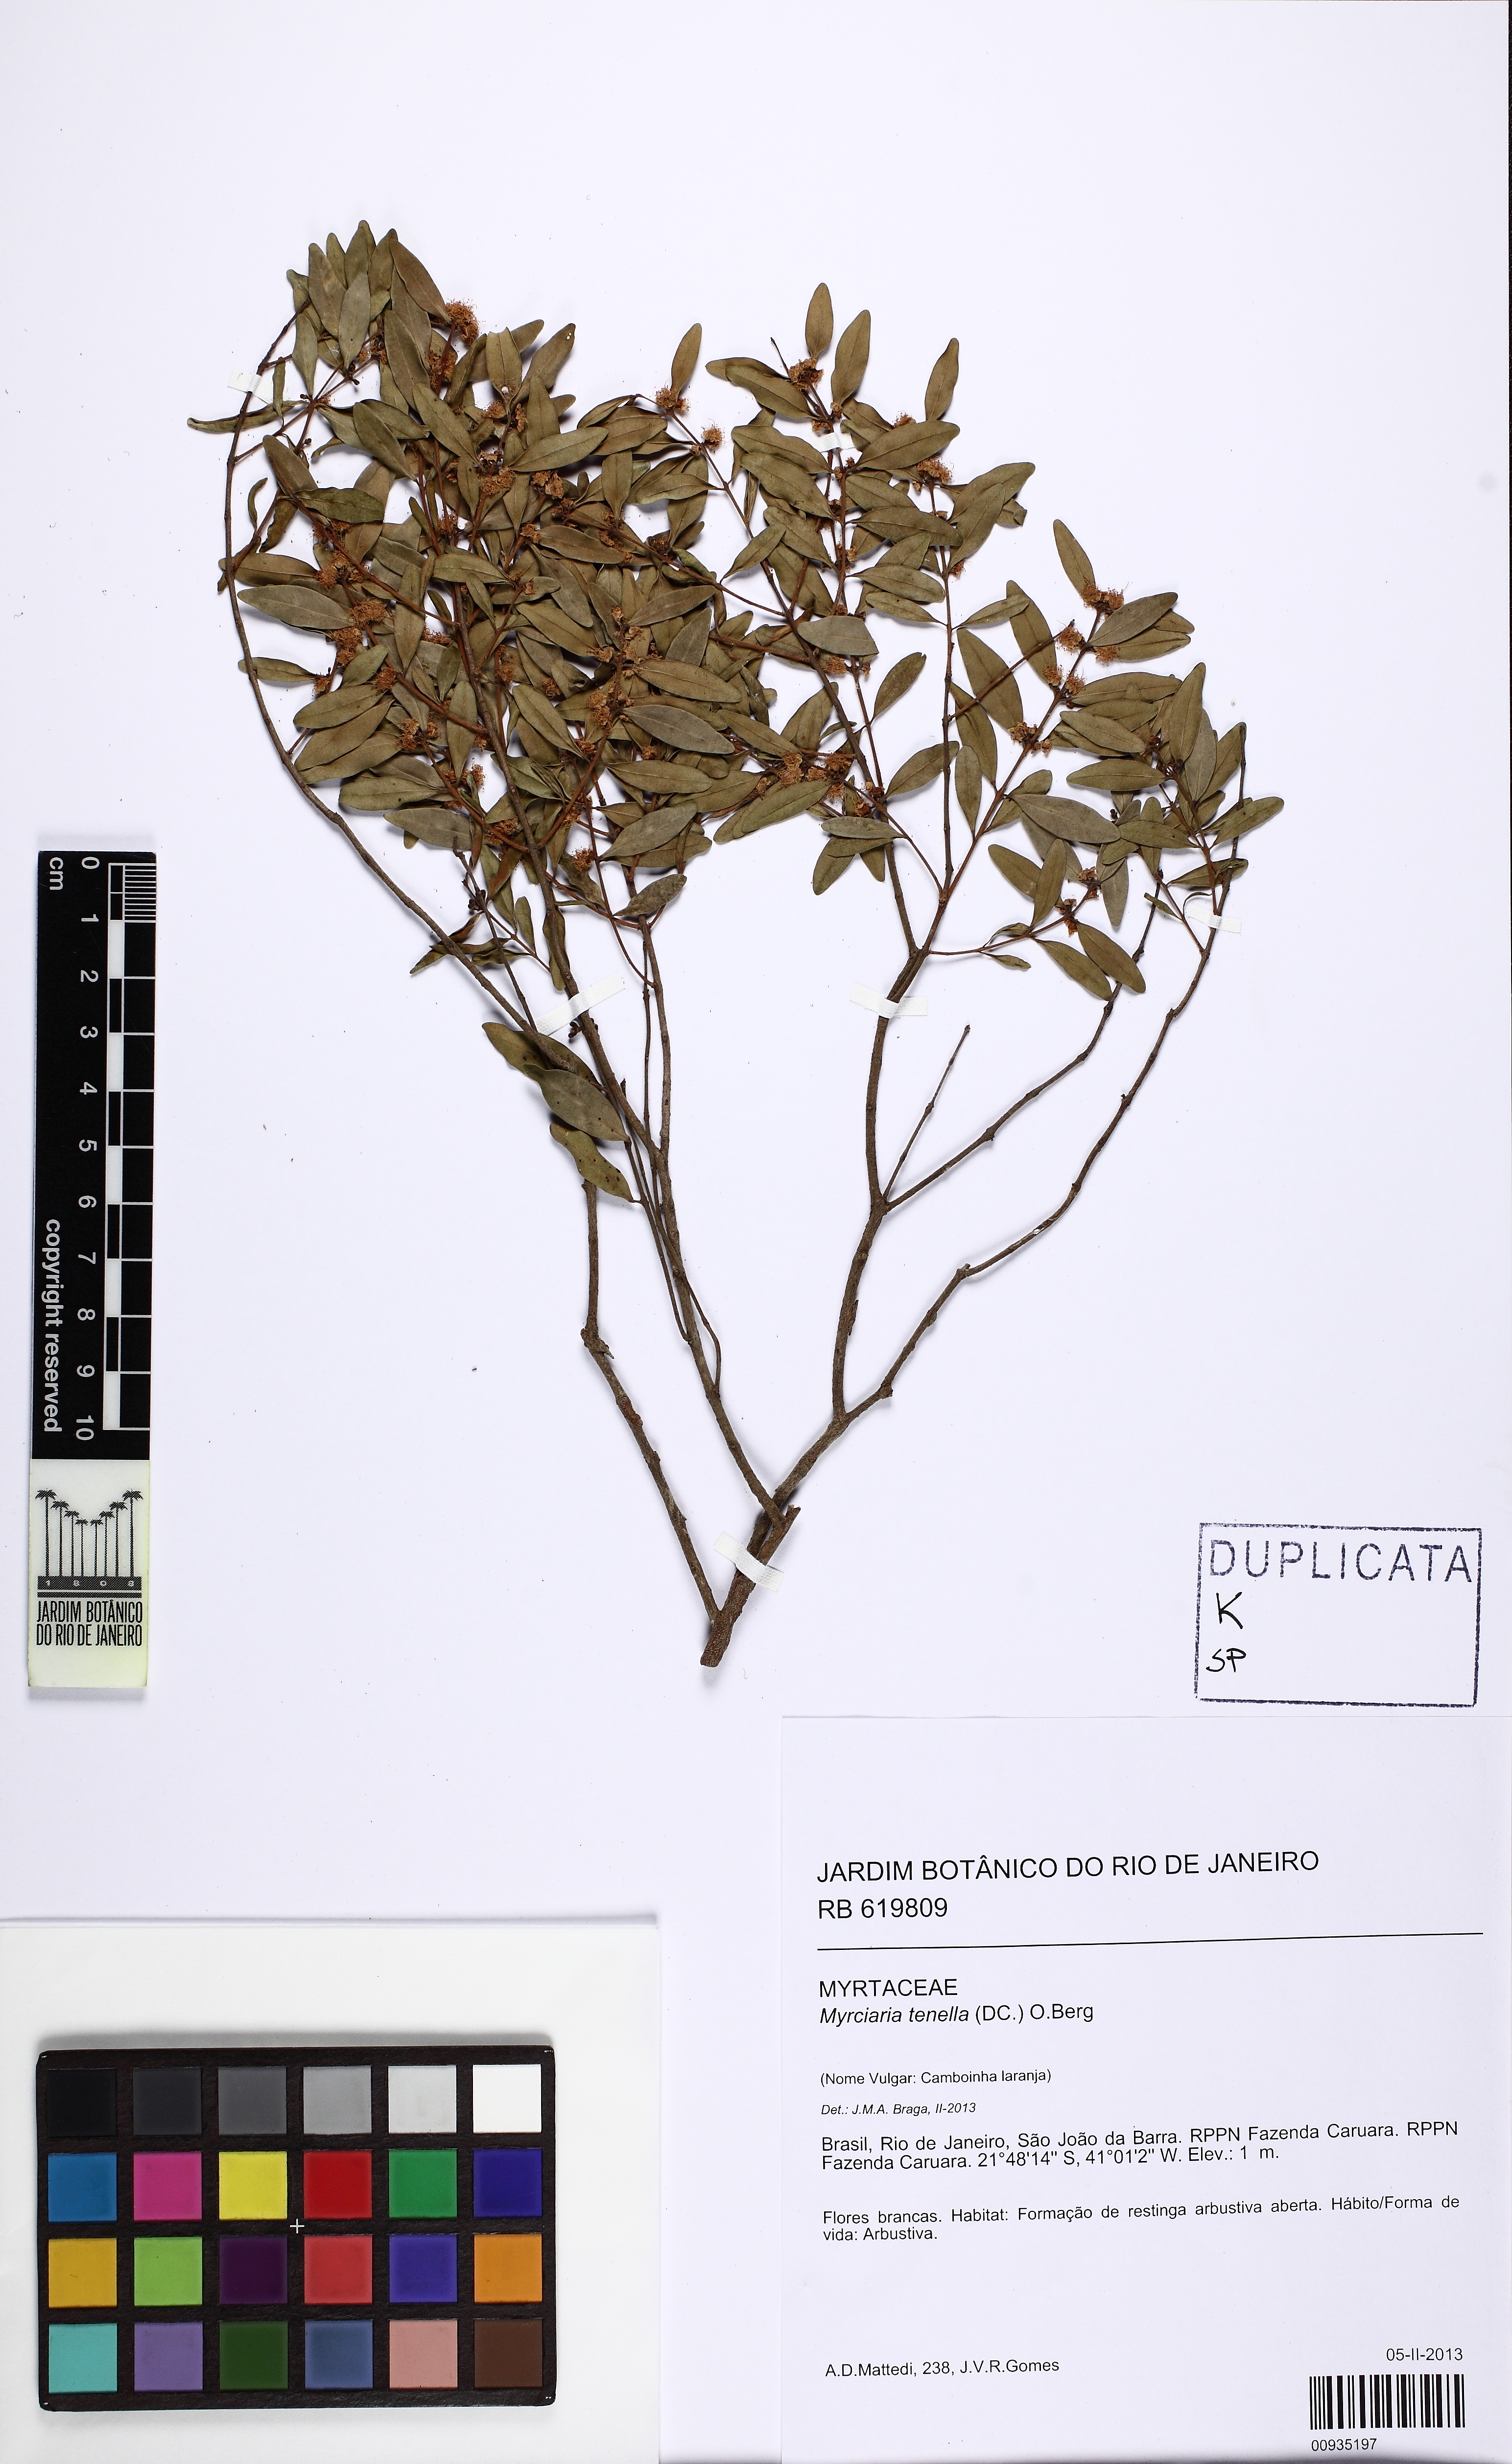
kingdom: Plantae
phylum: Tracheophyta
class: Magnoliopsida
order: Myrtales
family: Myrtaceae
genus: Myrciaria
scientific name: Myrciaria tenella
